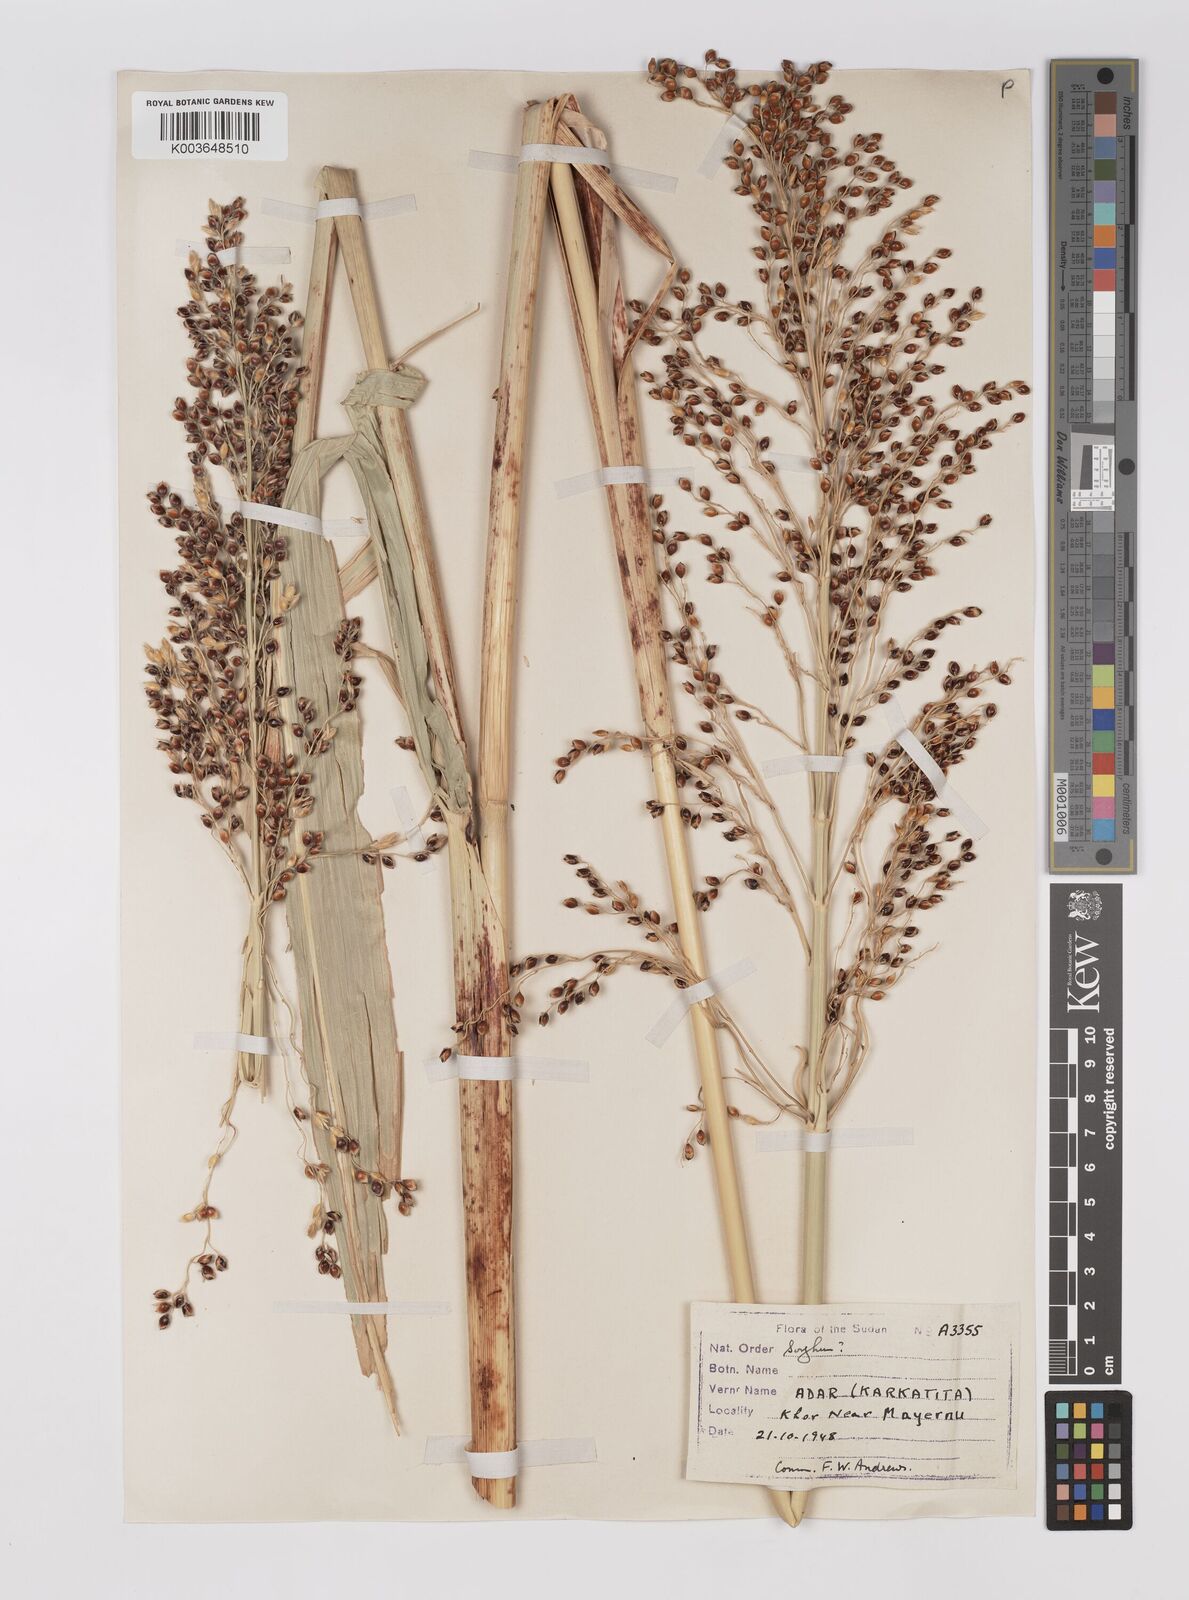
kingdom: Plantae
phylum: Tracheophyta
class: Liliopsida
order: Poales
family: Poaceae
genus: Sorghum
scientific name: Sorghum drummondii
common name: Sudangrass
